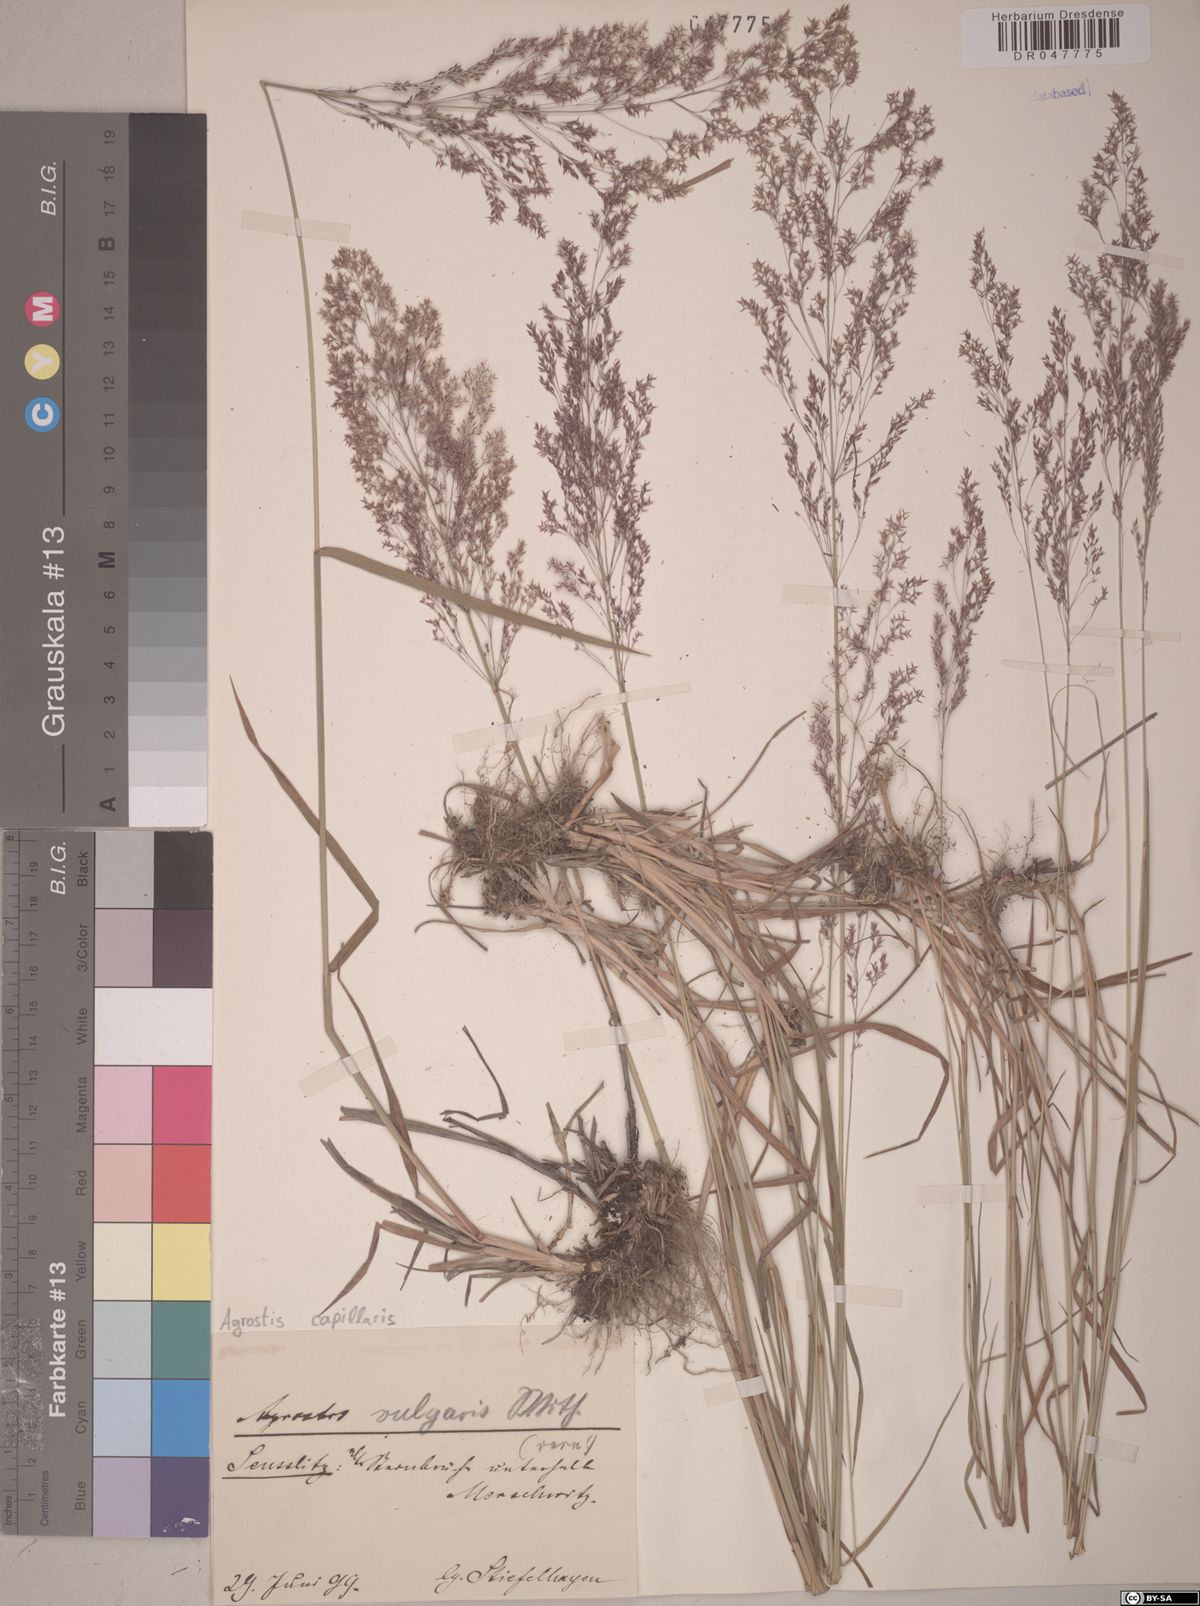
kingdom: Plantae
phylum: Tracheophyta
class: Liliopsida
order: Poales
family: Poaceae
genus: Agrostis
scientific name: Agrostis capillaris
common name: Colonial bentgrass
